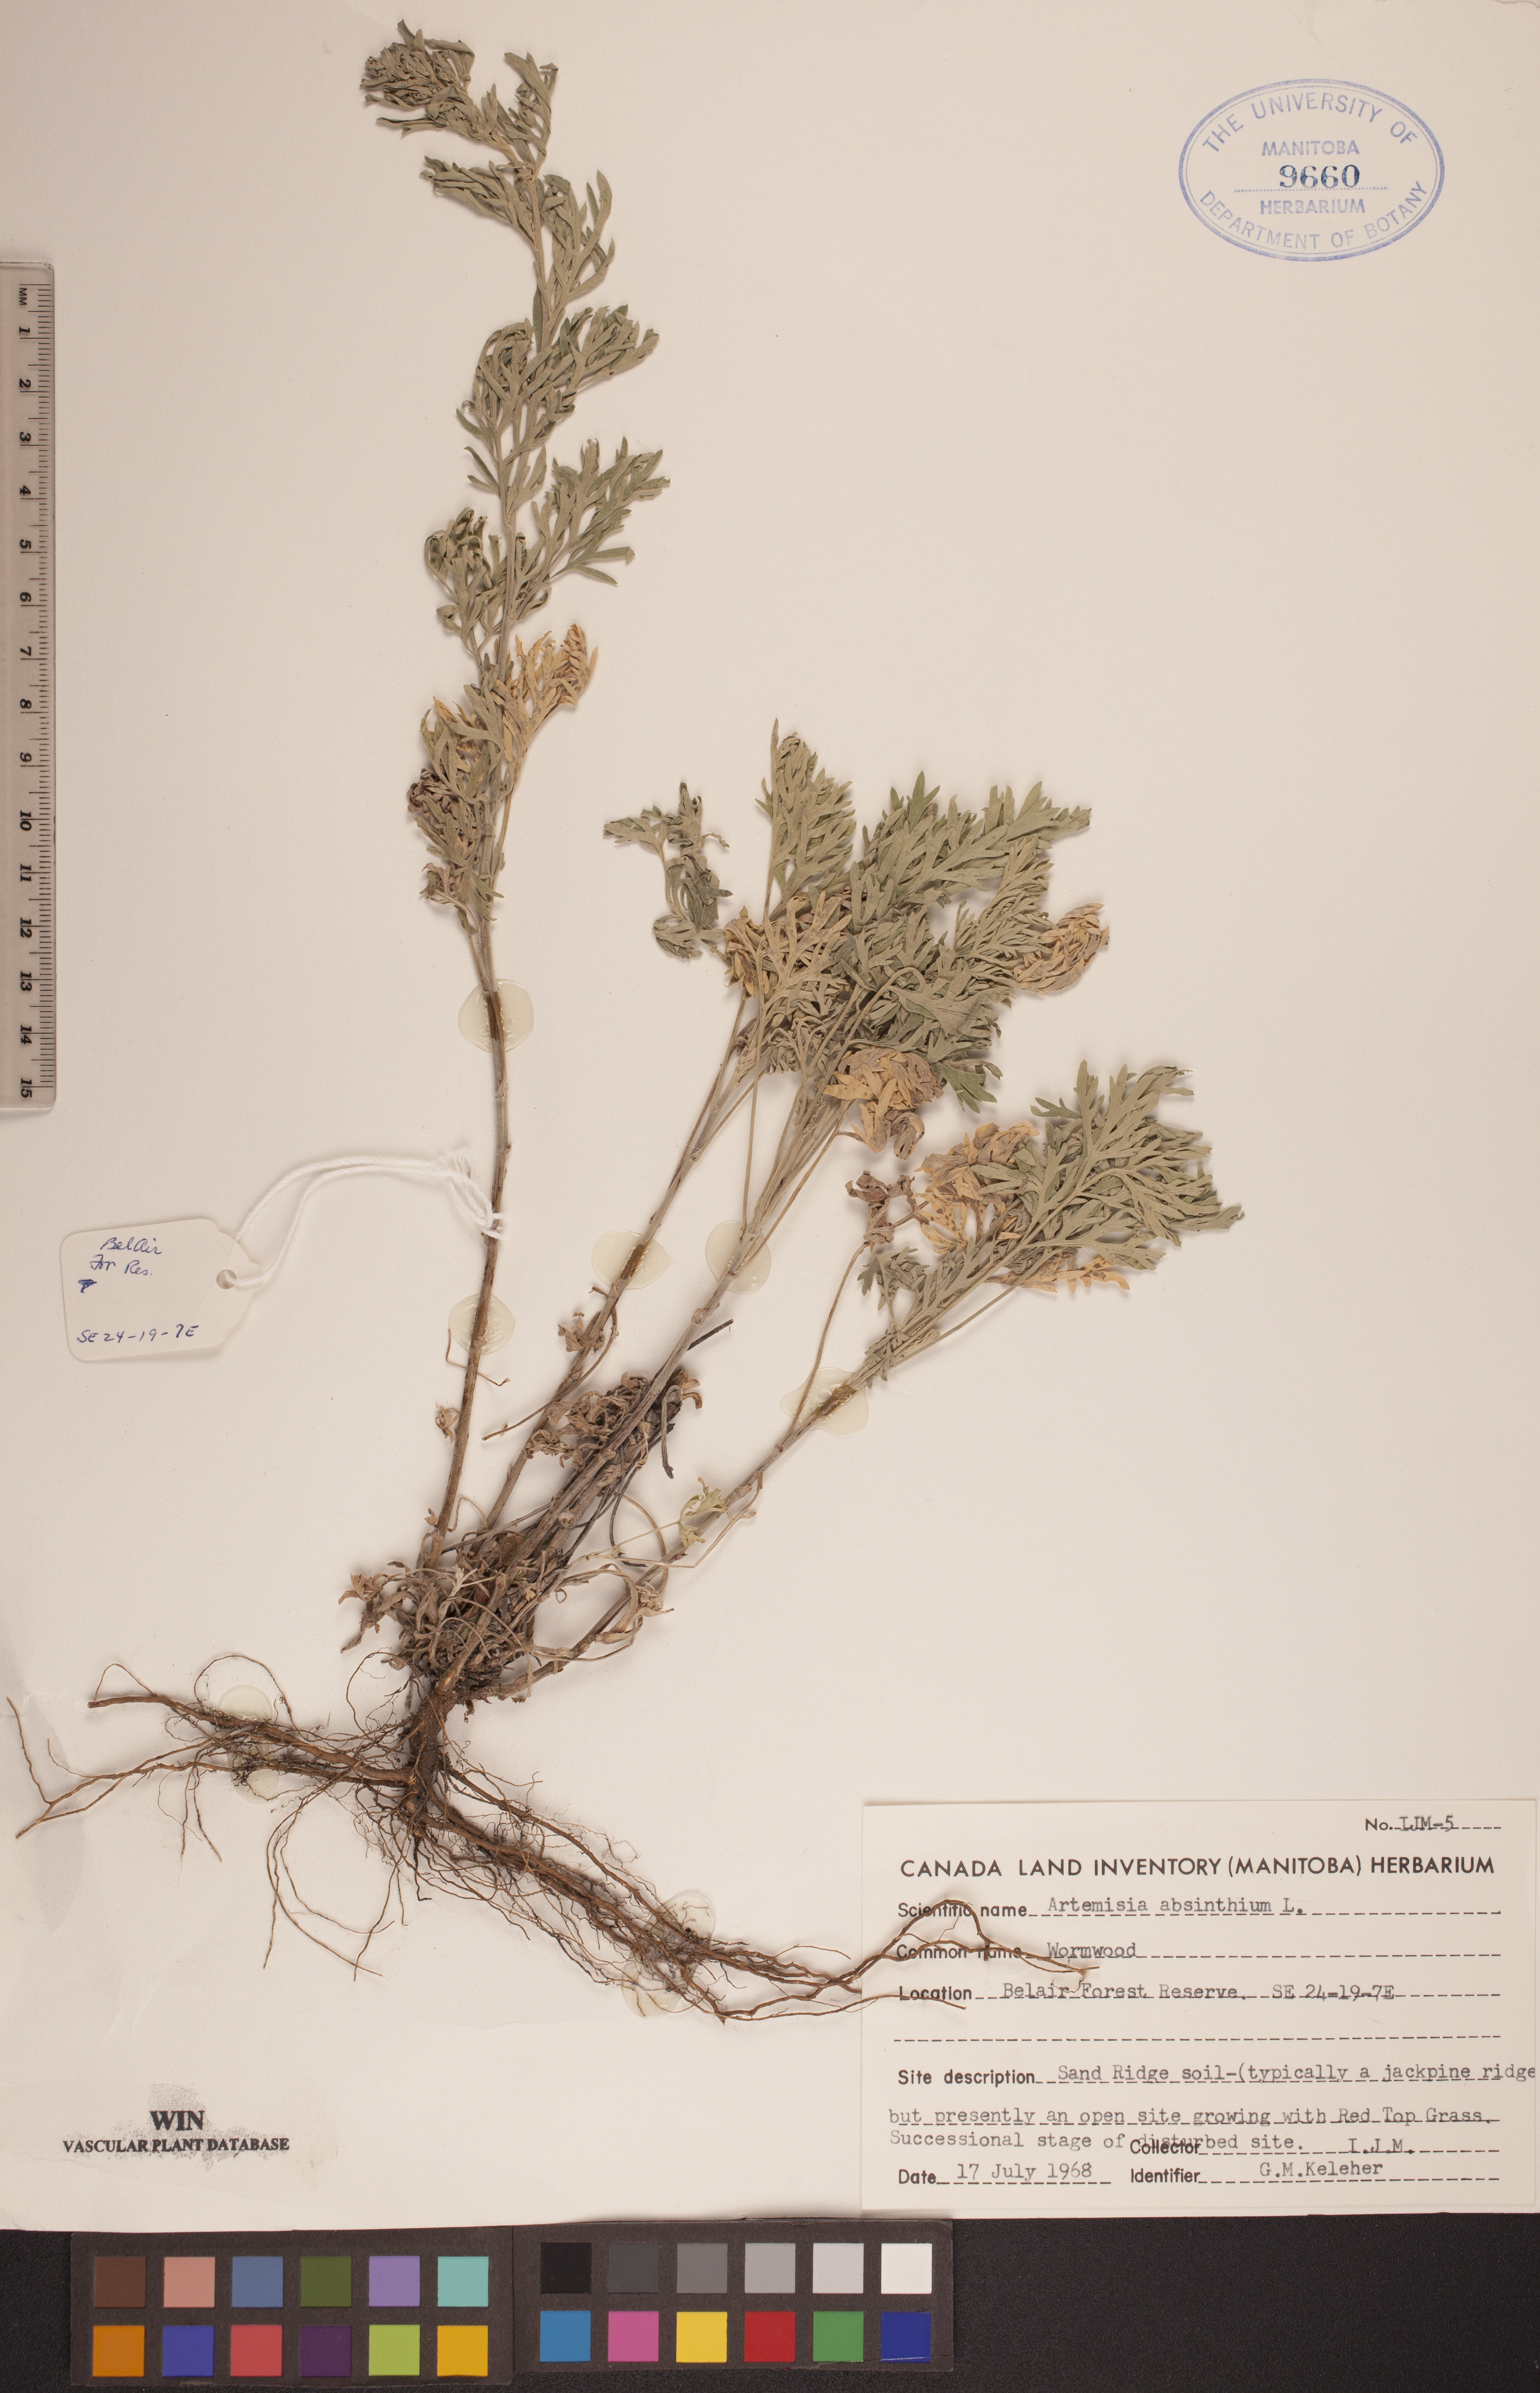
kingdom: Plantae
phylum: Tracheophyta
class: Magnoliopsida
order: Asterales
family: Asteraceae
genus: Artemisia
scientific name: Artemisia absinthium
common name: Wormwood
